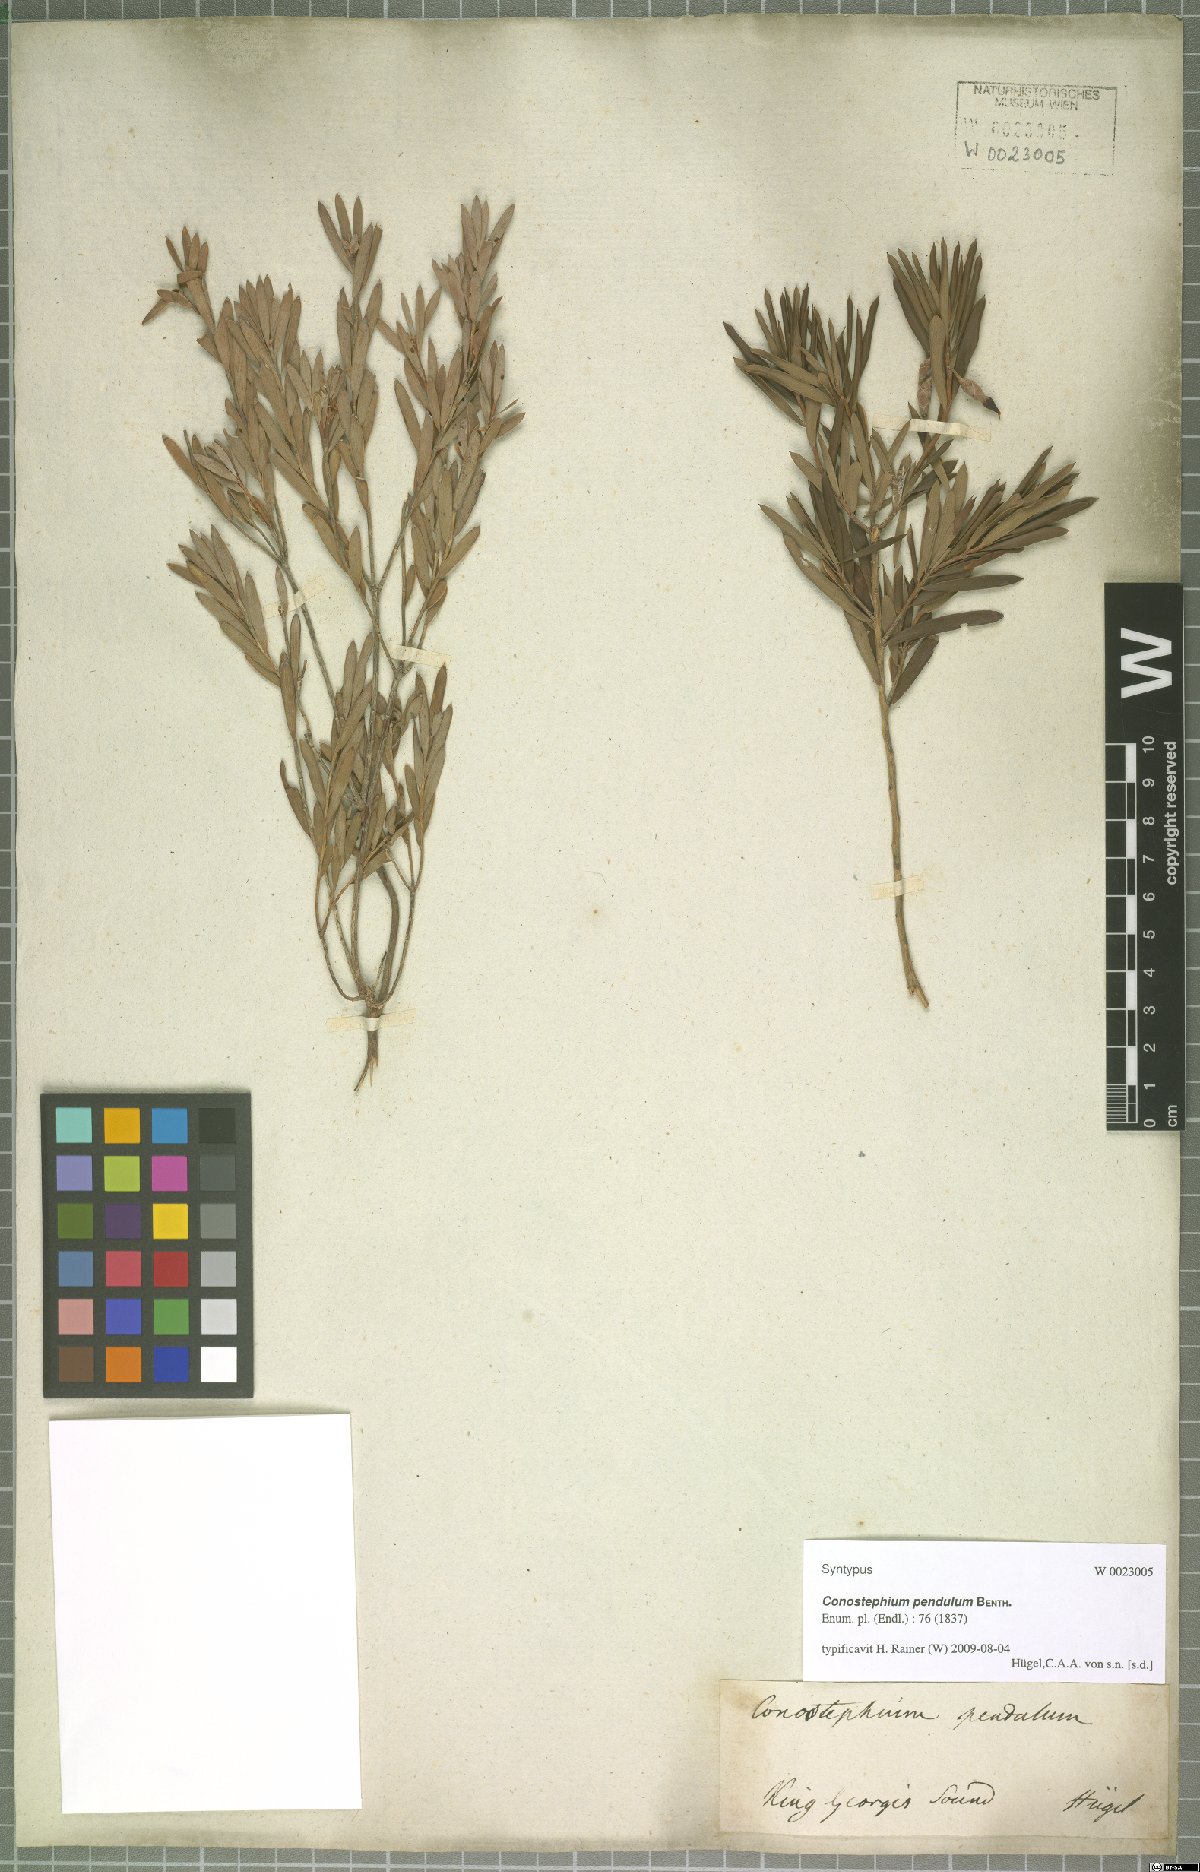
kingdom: Plantae
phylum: Tracheophyta
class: Magnoliopsida
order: Ericales
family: Ericaceae
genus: Conostephium
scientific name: Conostephium pendulum
